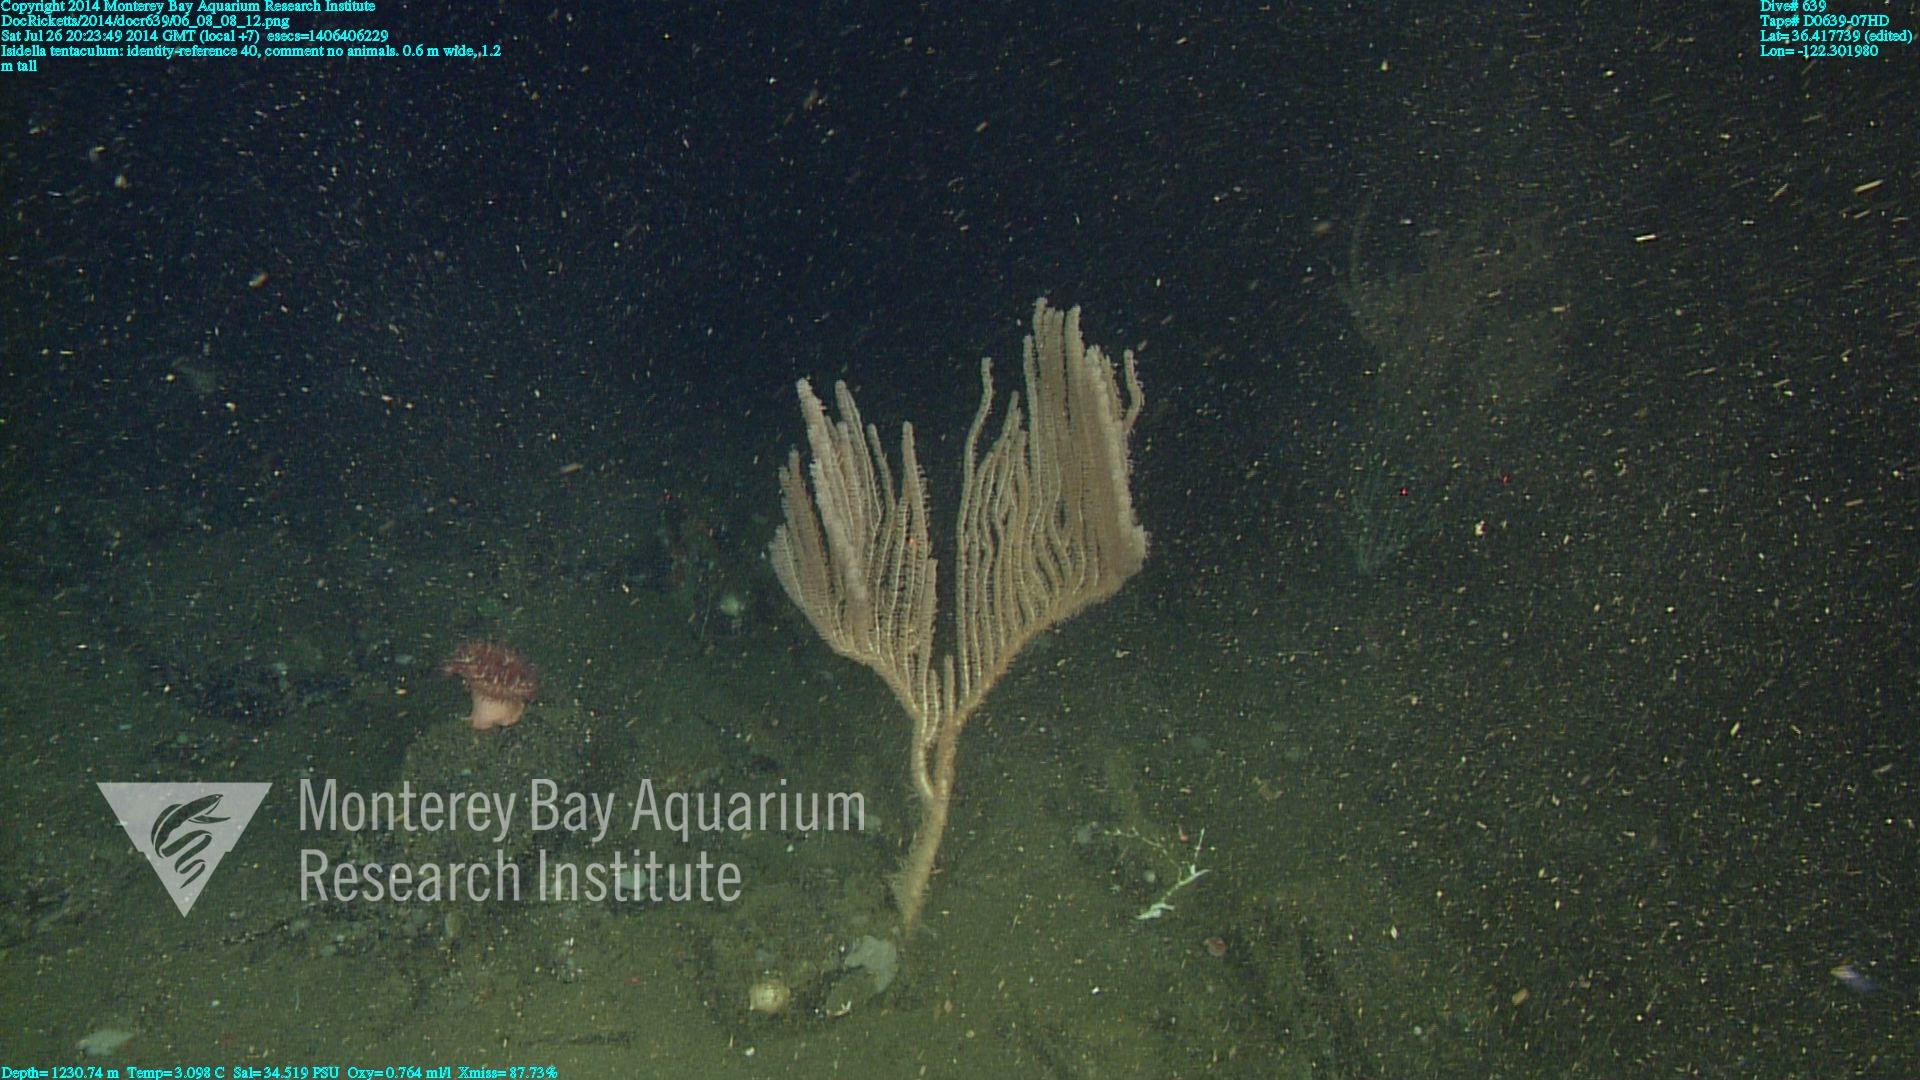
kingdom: Animalia
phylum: Cnidaria
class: Anthozoa
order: Scleralcyonacea
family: Keratoisididae
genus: Isidella
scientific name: Isidella tentaculum
